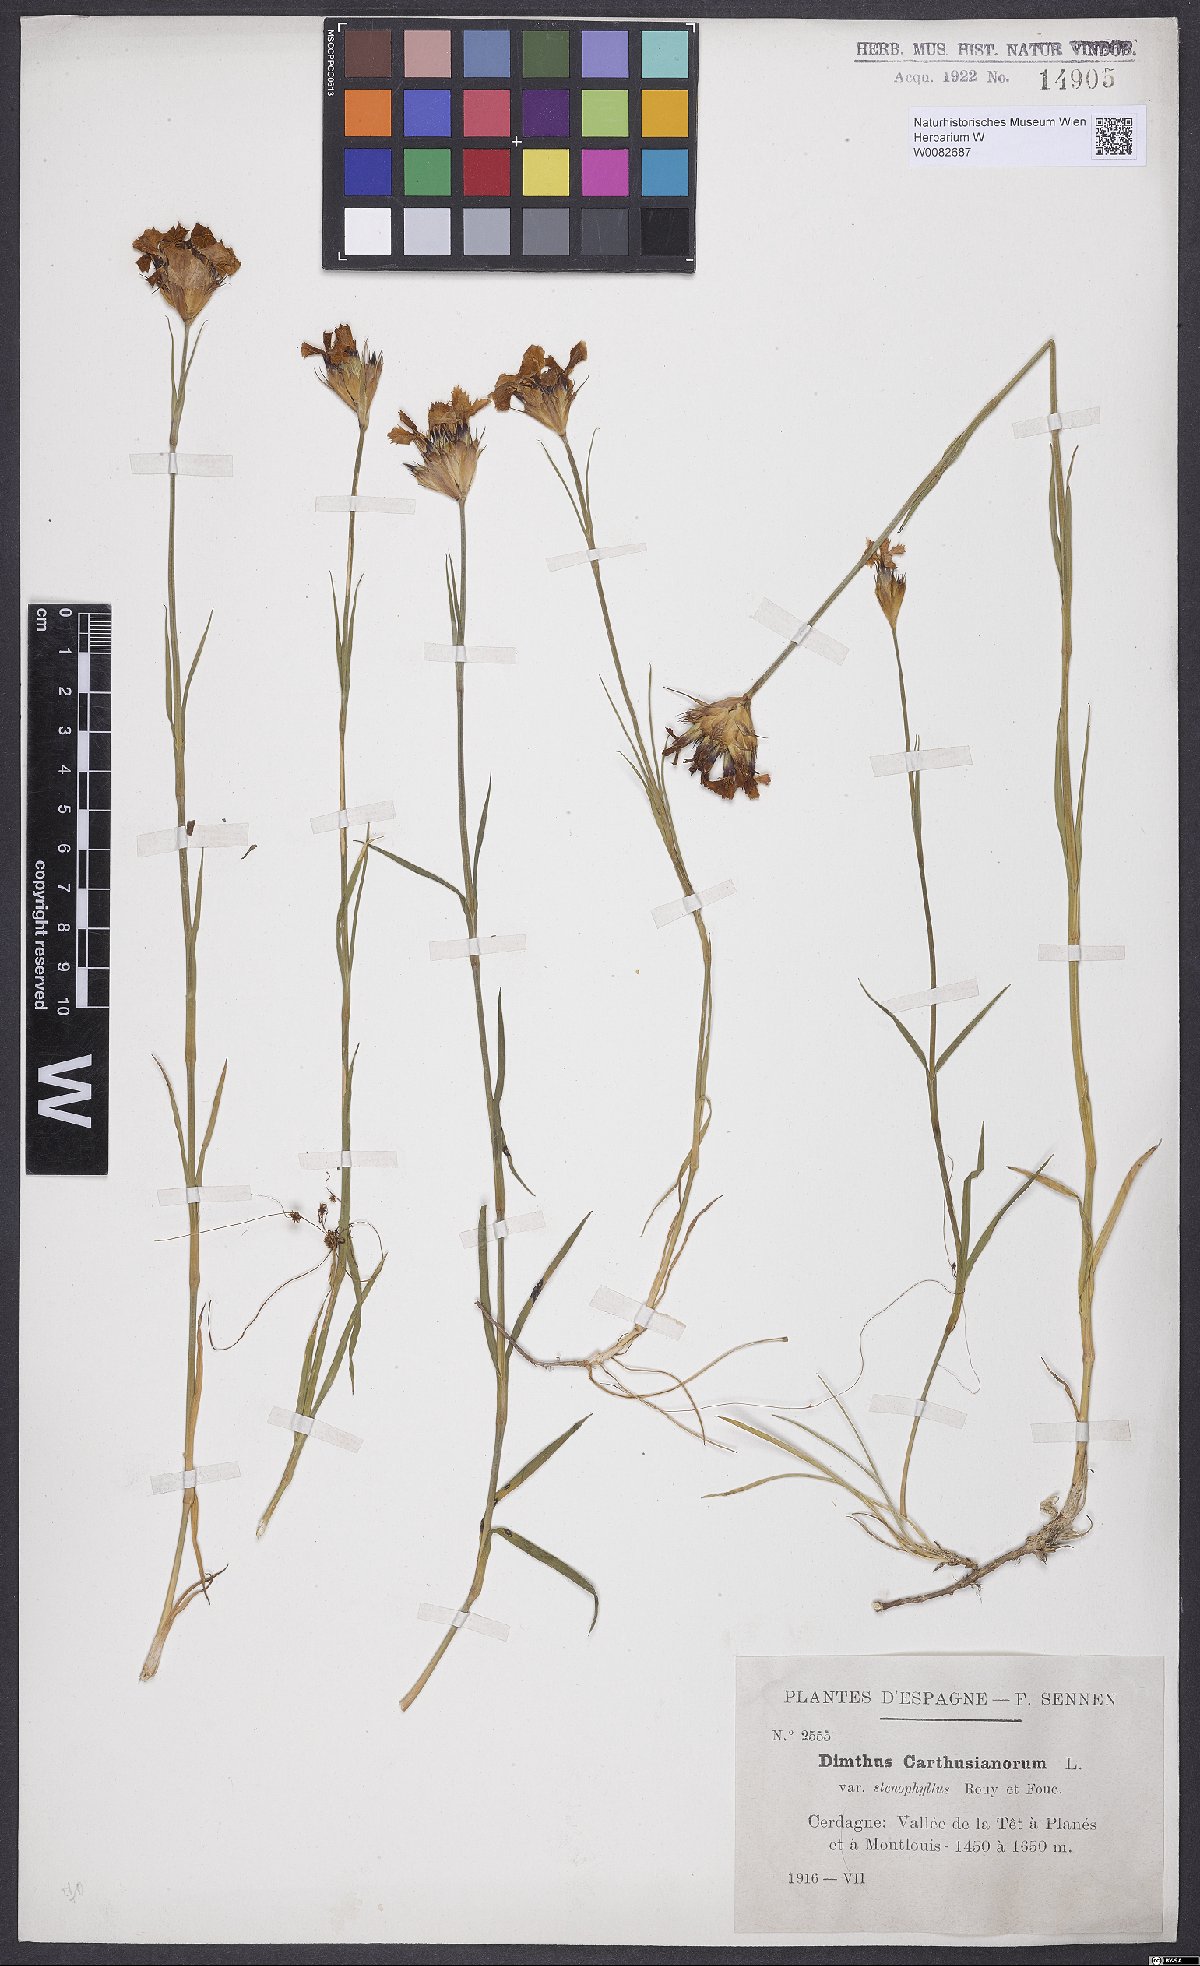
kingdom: Plantae
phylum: Tracheophyta
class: Magnoliopsida
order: Caryophyllales
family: Caryophyllaceae
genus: Dianthus
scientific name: Dianthus carthusianorum
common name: Carthusian pink
